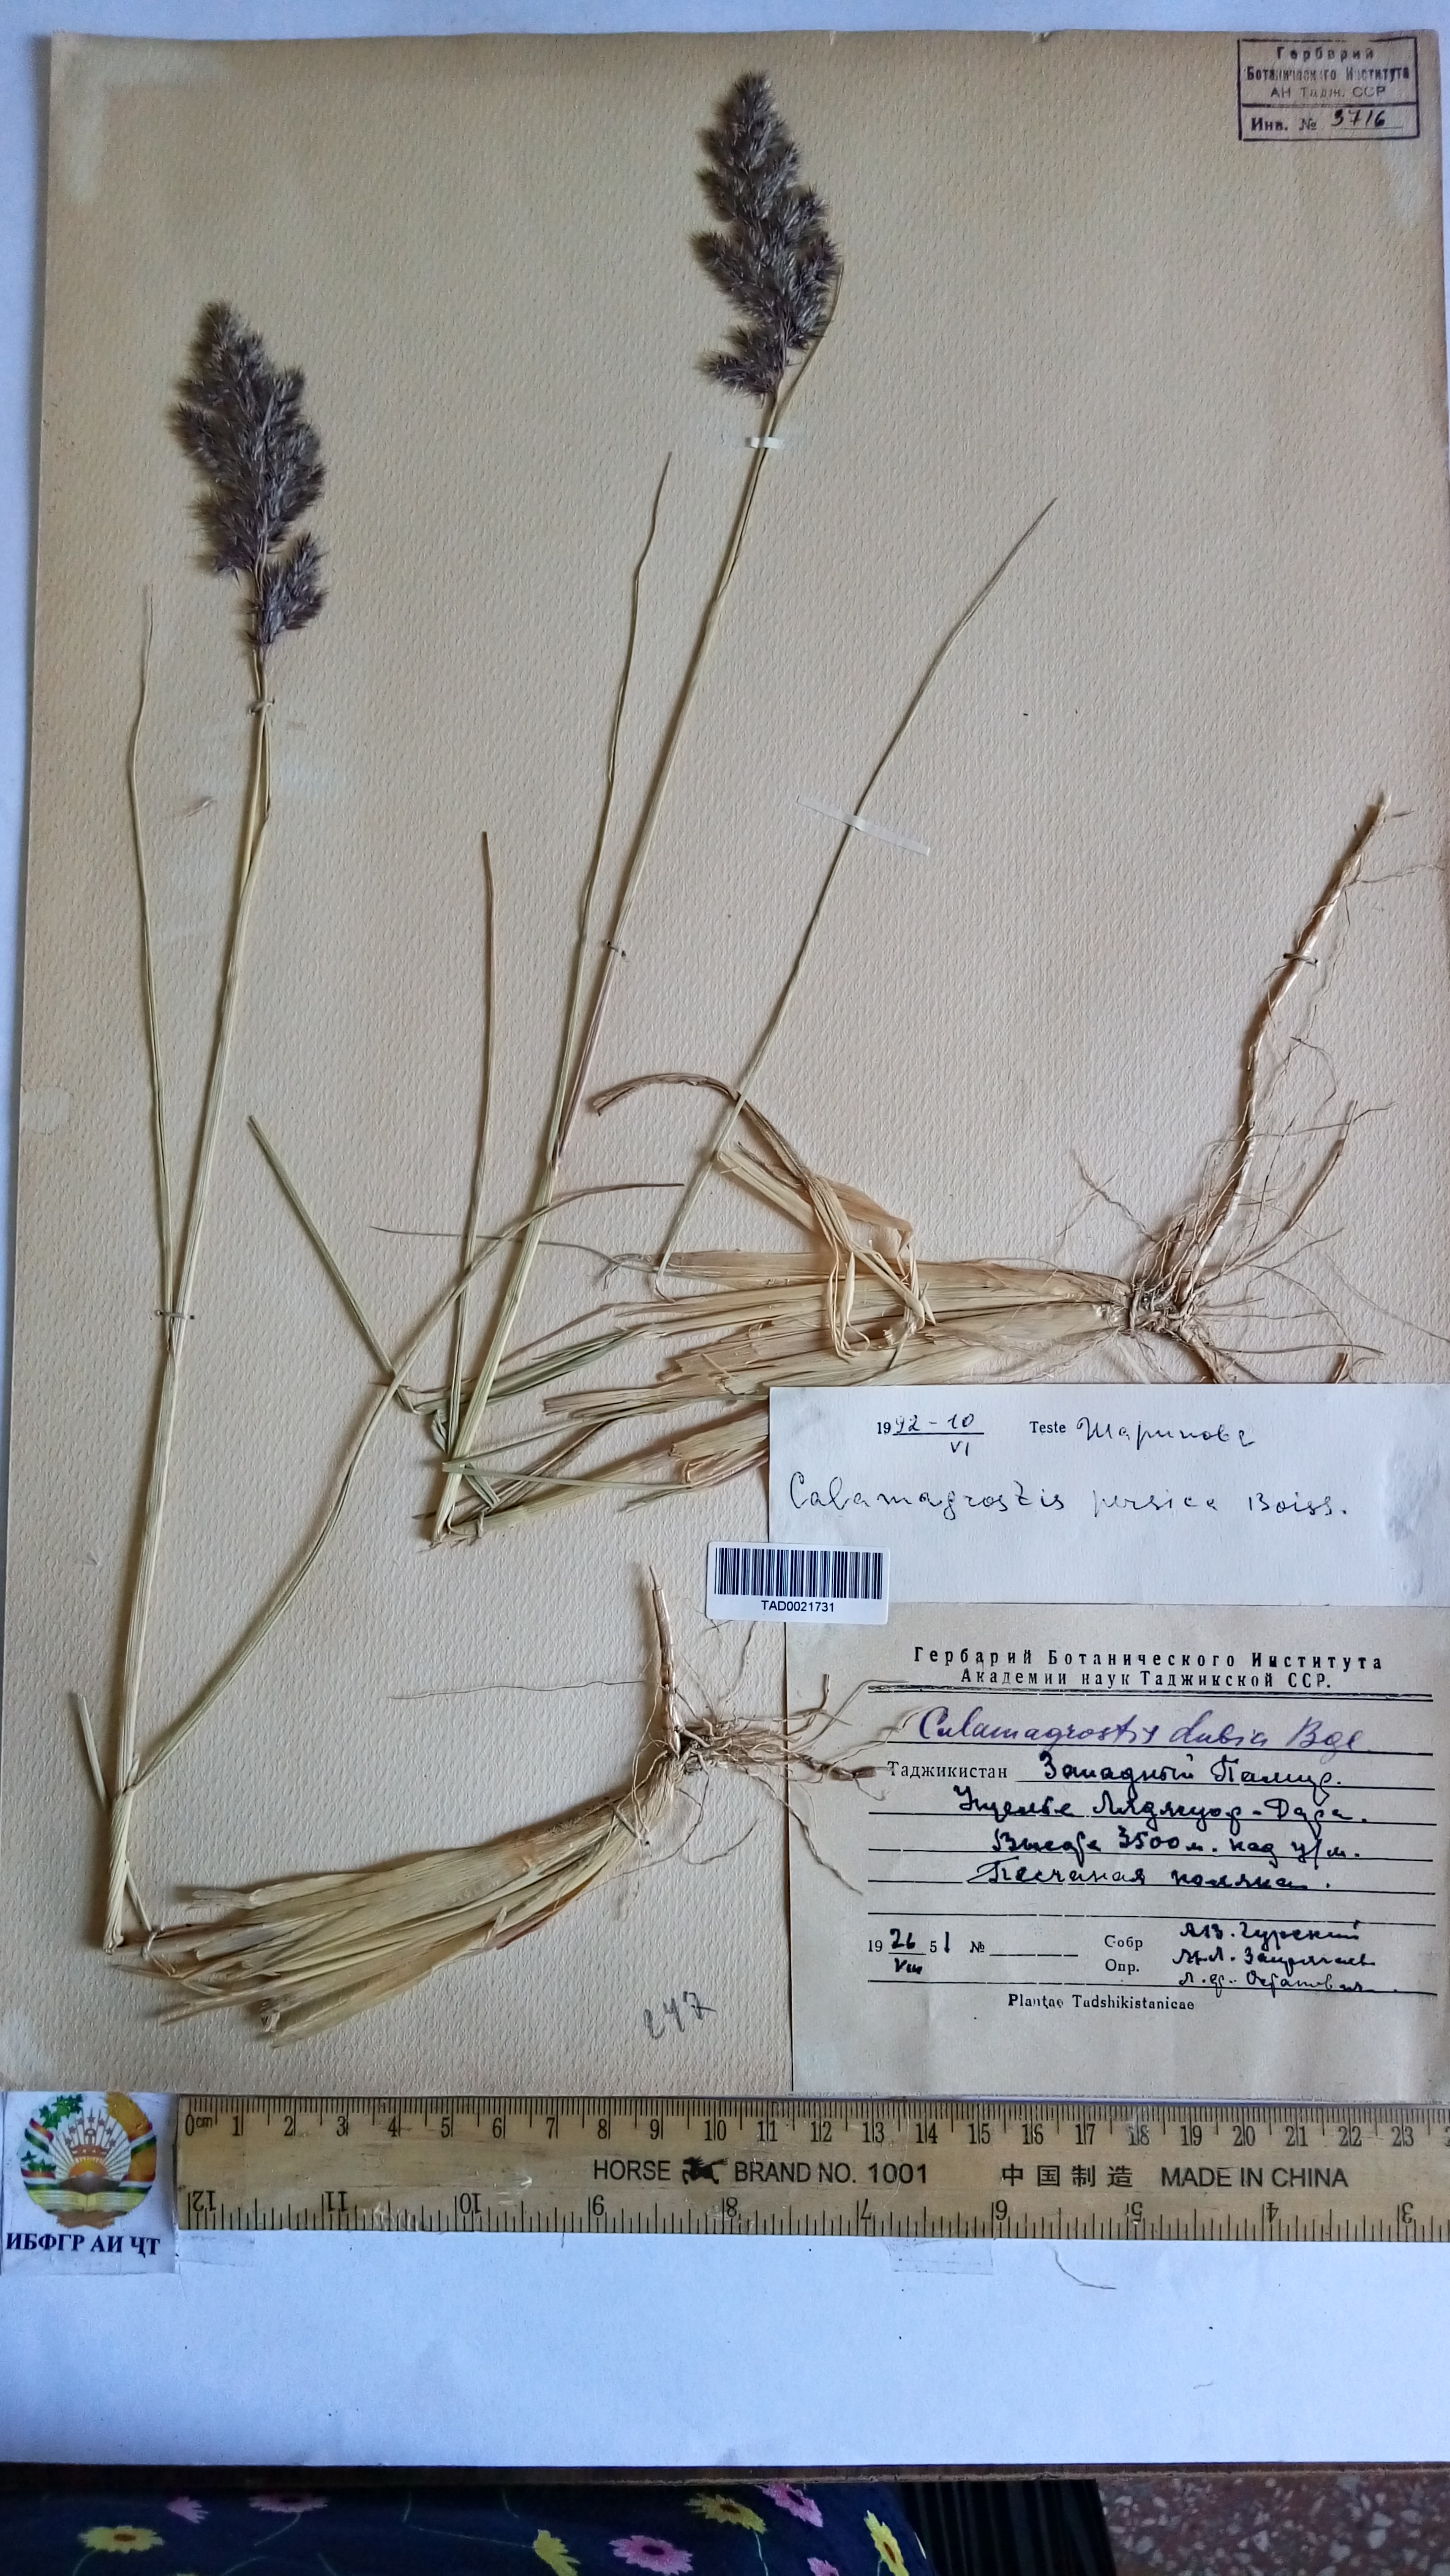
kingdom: Plantae
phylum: Tracheophyta
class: Liliopsida
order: Poales
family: Poaceae
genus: Calamagrostis
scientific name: Calamagrostis pseudophragmites
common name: Coastal small-reed
